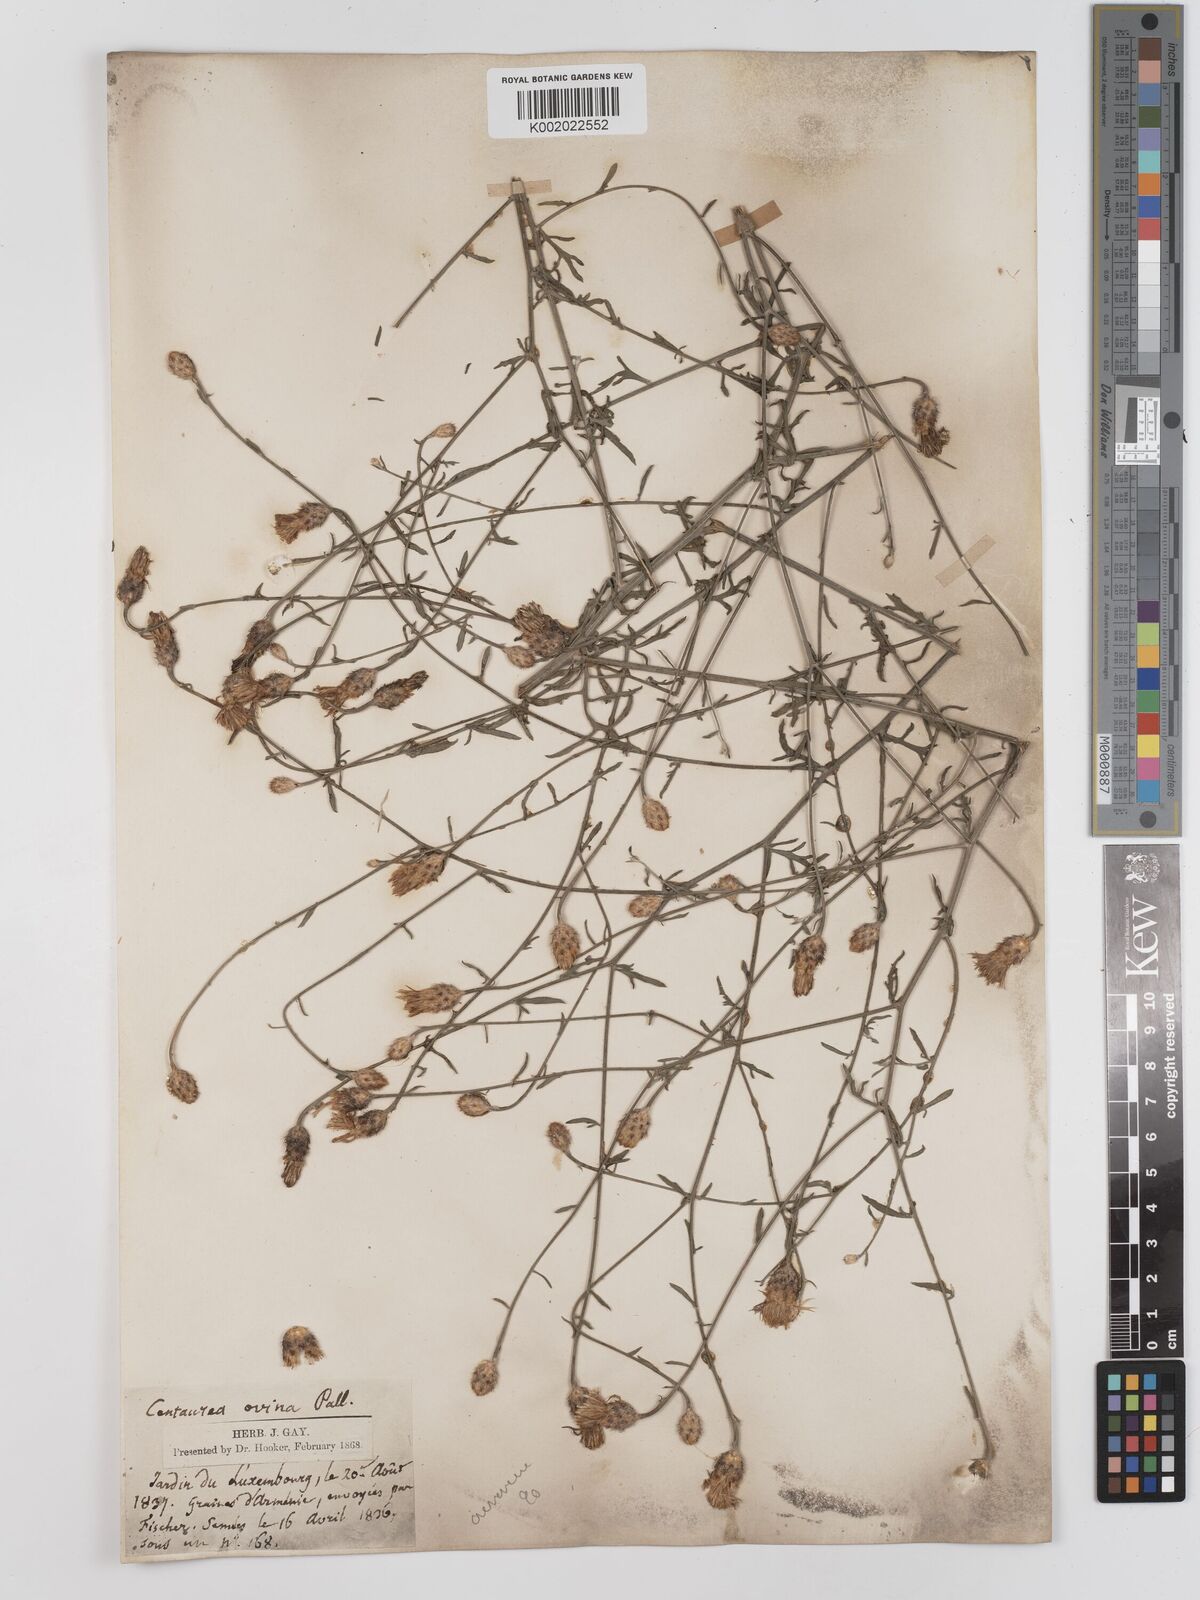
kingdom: Plantae
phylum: Tracheophyta
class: Magnoliopsida
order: Asterales
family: Asteraceae
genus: Centaurea
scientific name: Centaurea ovina
